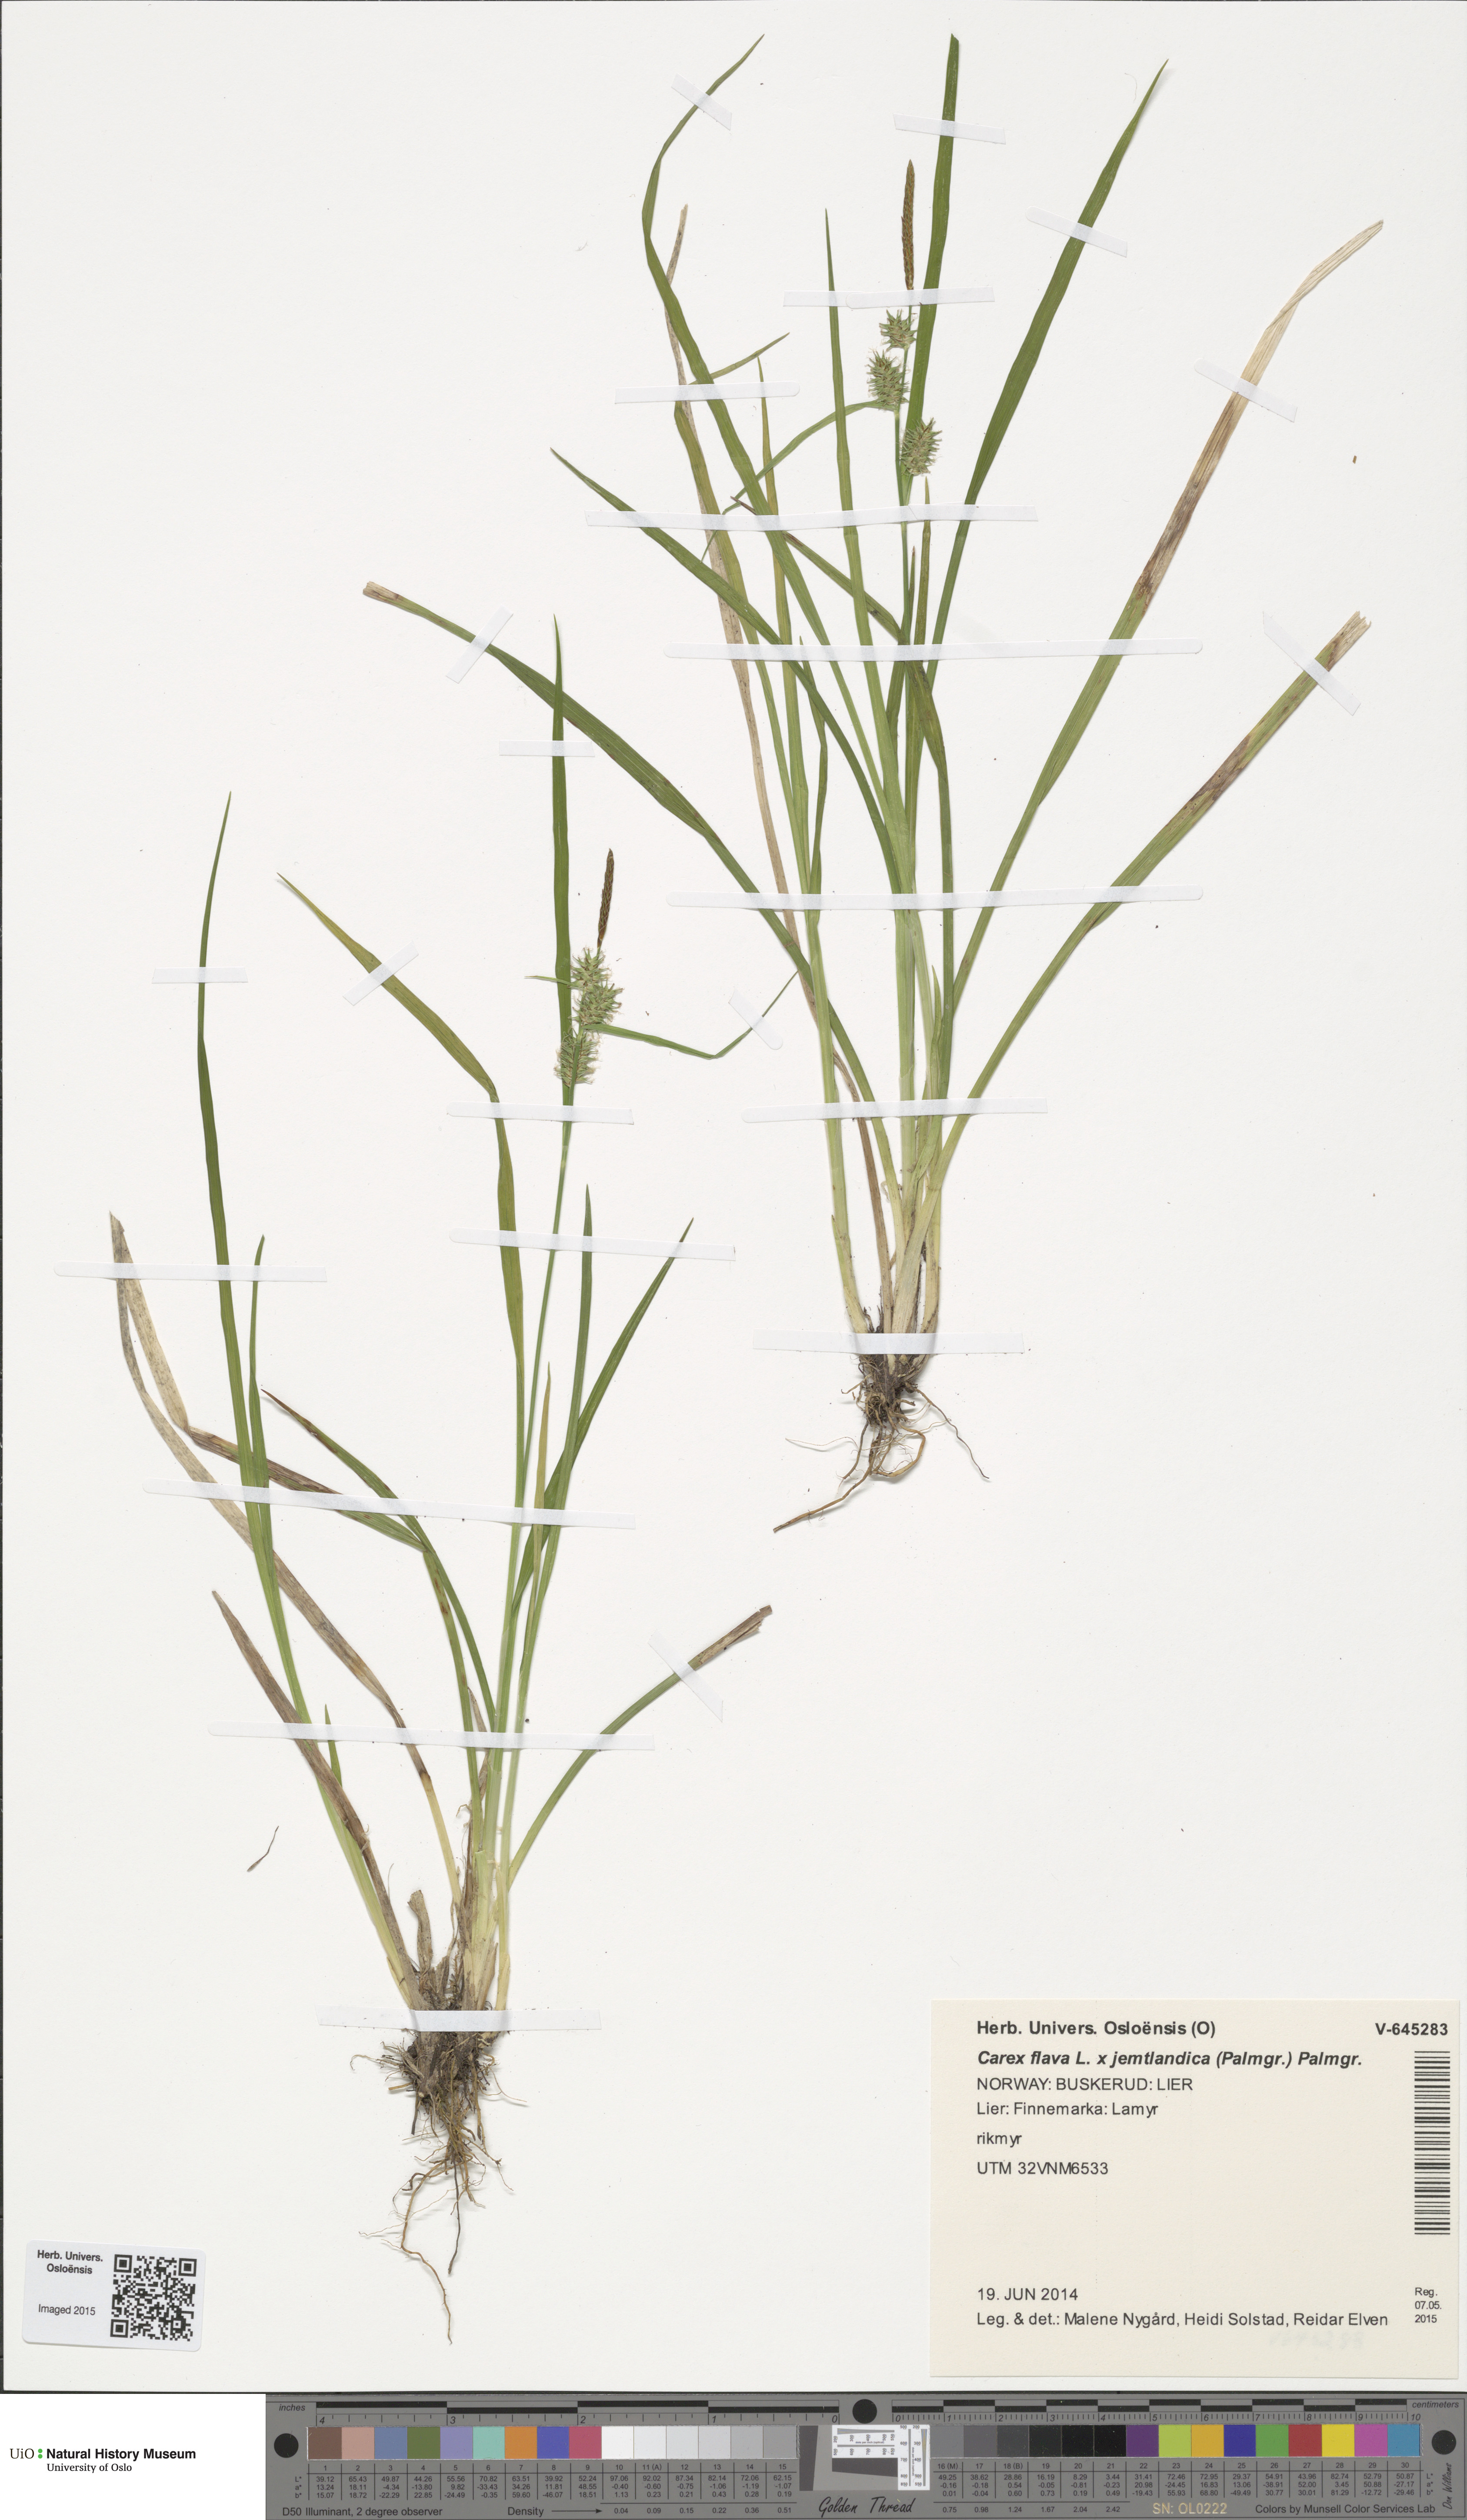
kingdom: Plantae
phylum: Tracheophyta
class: Liliopsida
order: Poales
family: Cyperaceae
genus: Carex
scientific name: Carex
